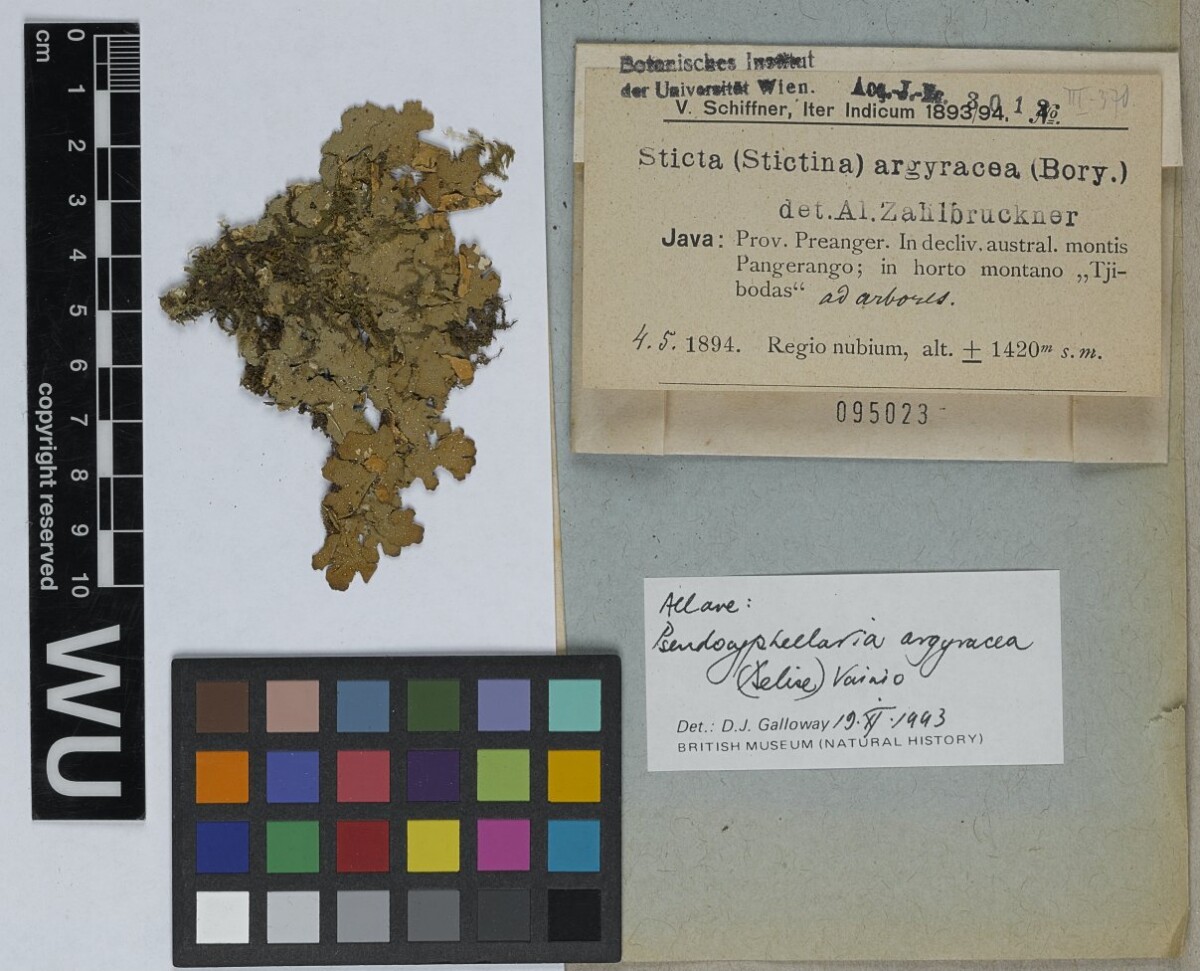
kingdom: Fungi
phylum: Ascomycota
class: Lecanoromycetes
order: Peltigerales
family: Lobariaceae
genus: Pseudocyphellaria
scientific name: Pseudocyphellaria argyracea
